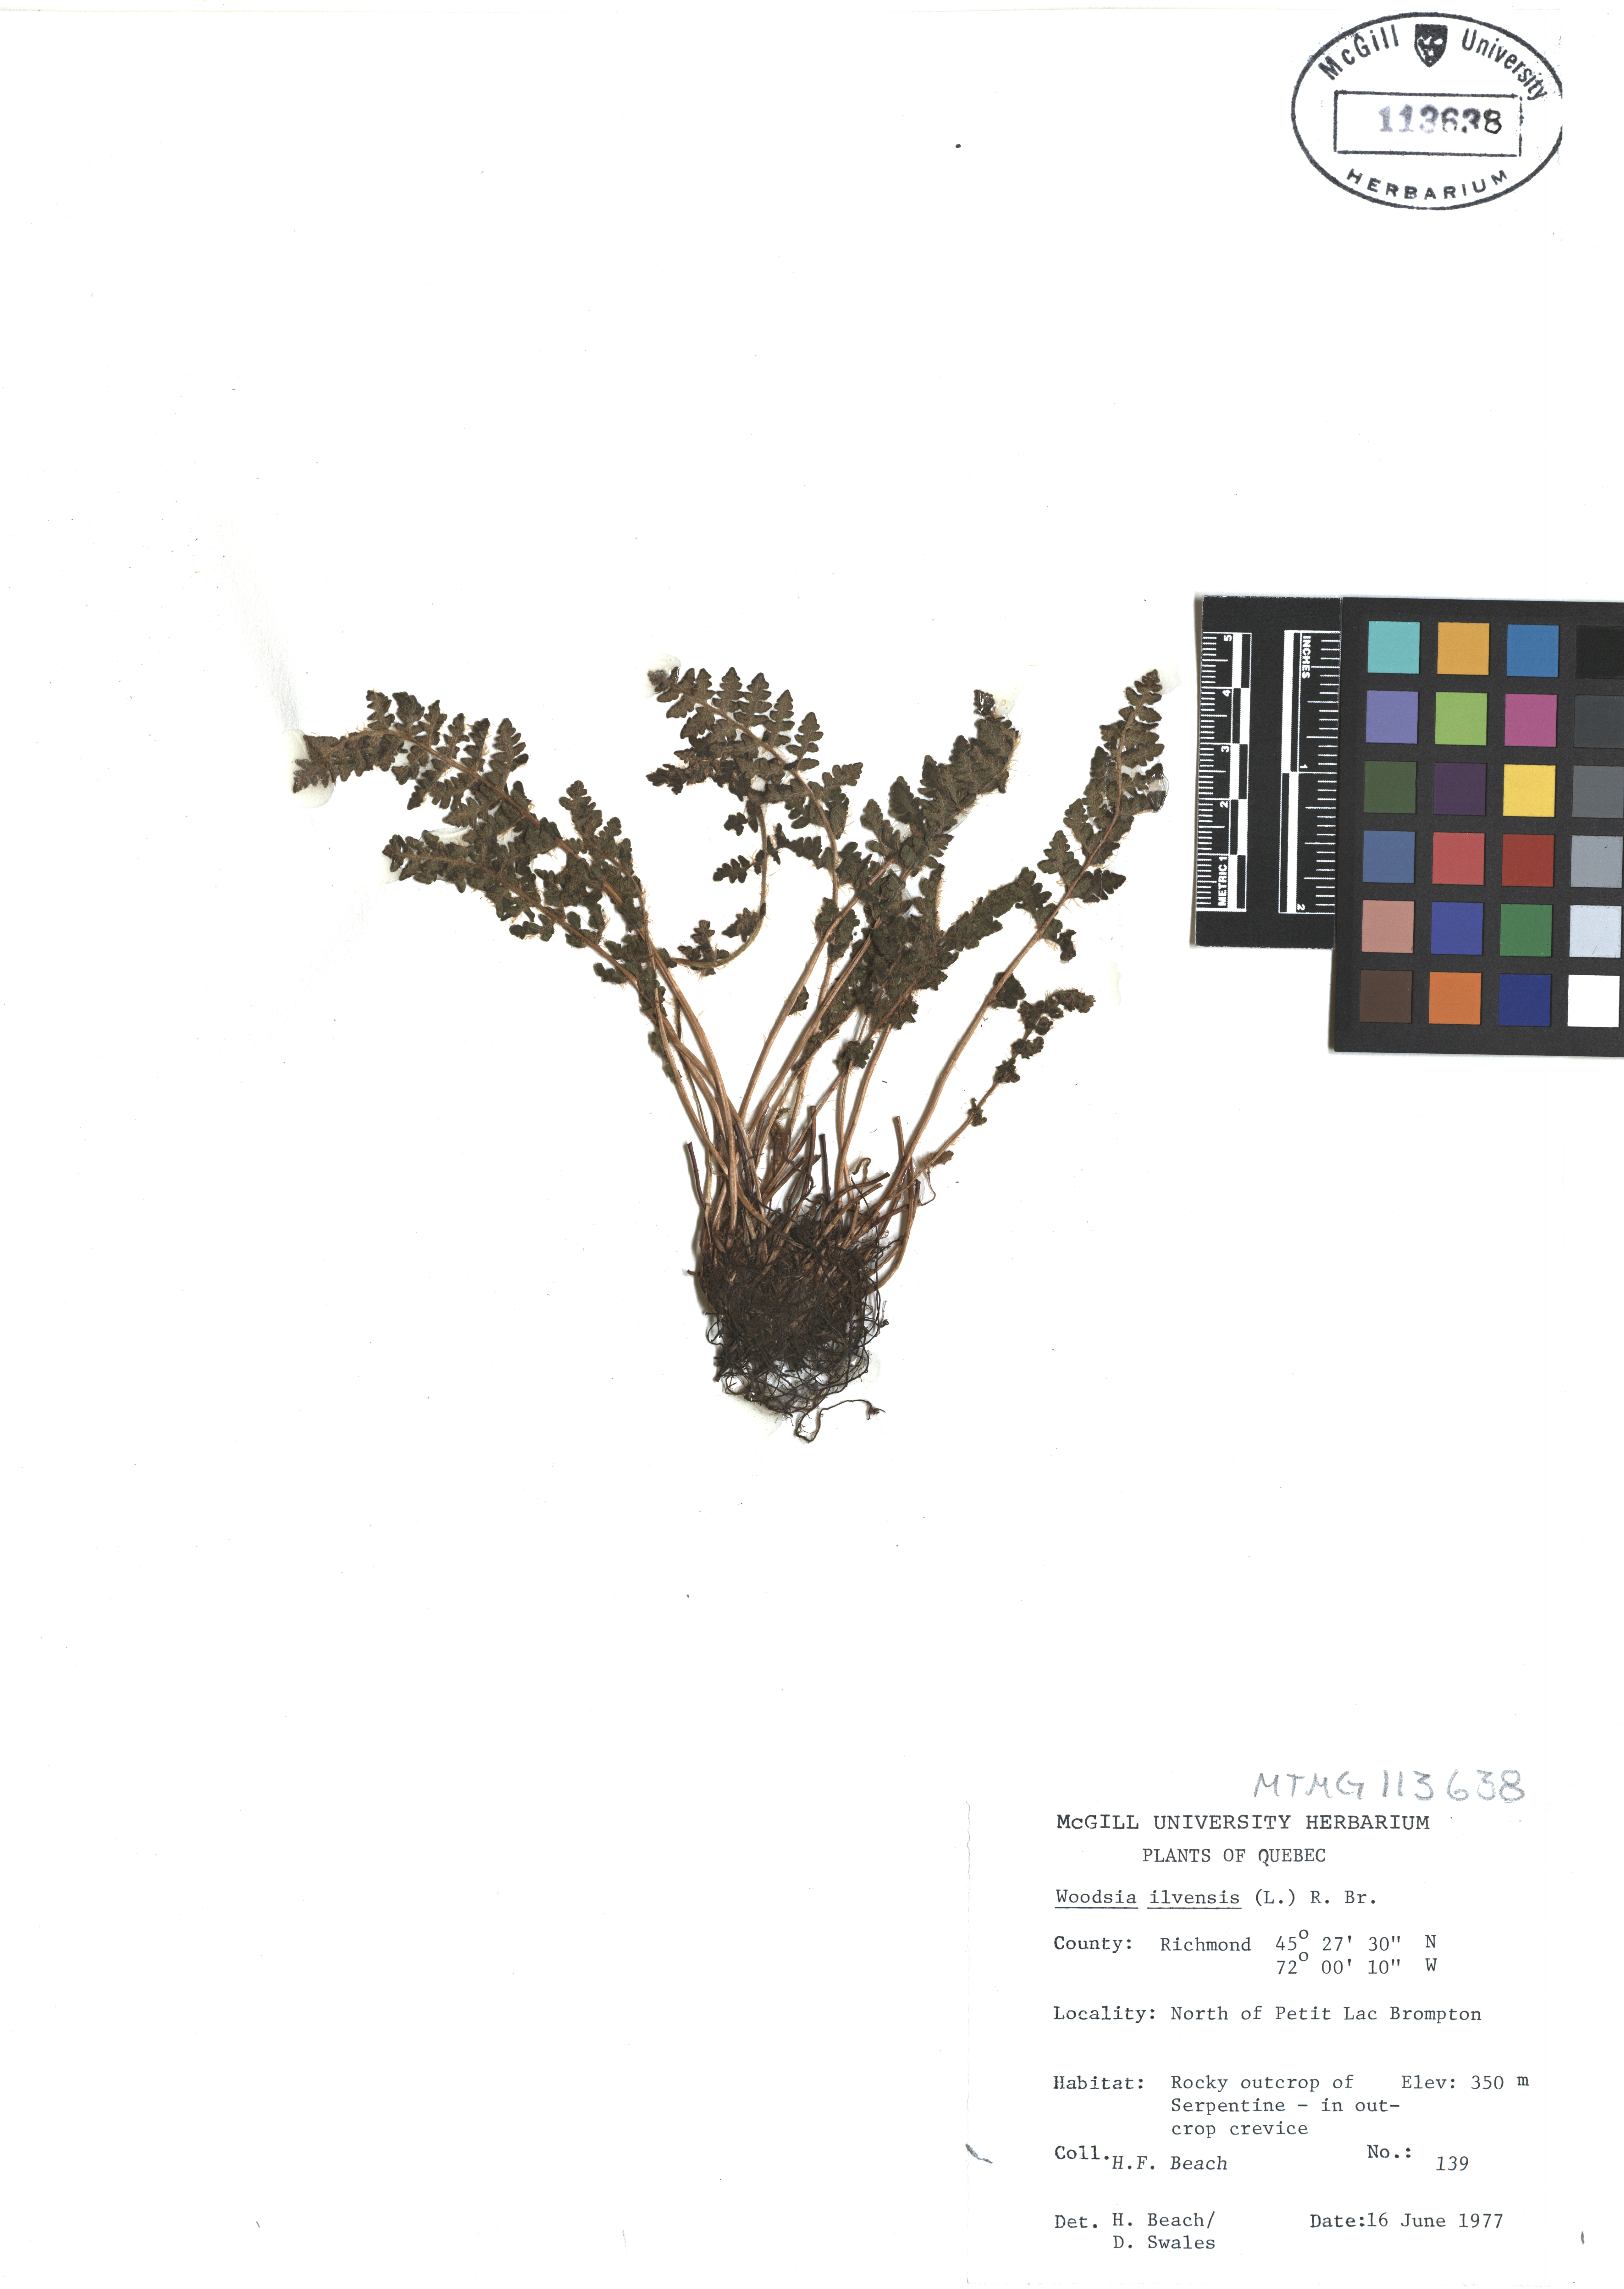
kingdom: Plantae
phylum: Tracheophyta
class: Polypodiopsida
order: Polypodiales
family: Woodsiaceae
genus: Woodsia
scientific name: Woodsia ilvensis
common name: Fragrant woodsia
